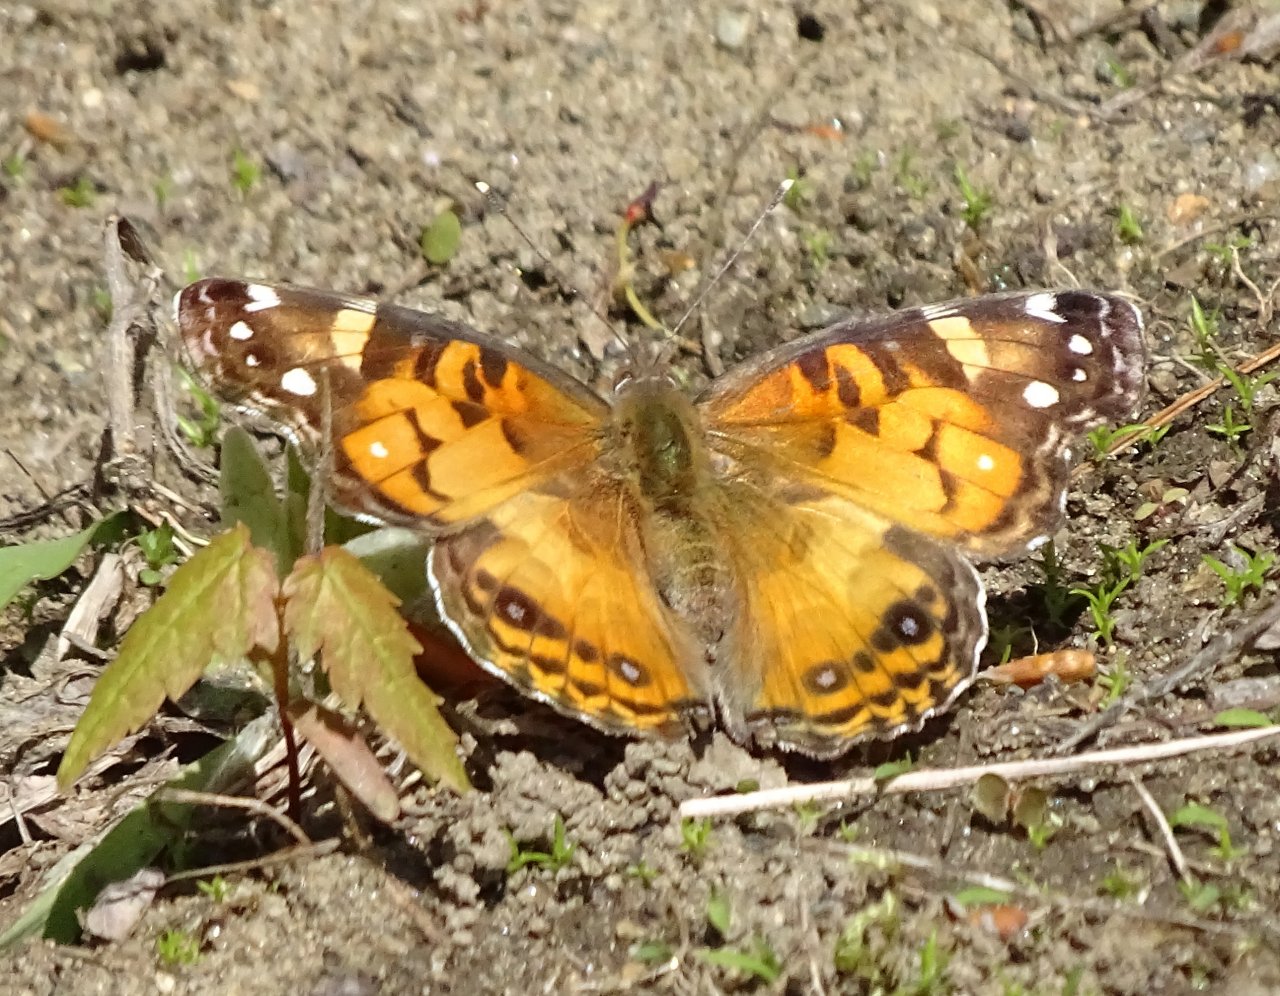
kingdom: Animalia
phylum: Arthropoda
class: Insecta
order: Lepidoptera
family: Nymphalidae
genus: Vanessa
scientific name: Vanessa virginiensis
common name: American Lady
